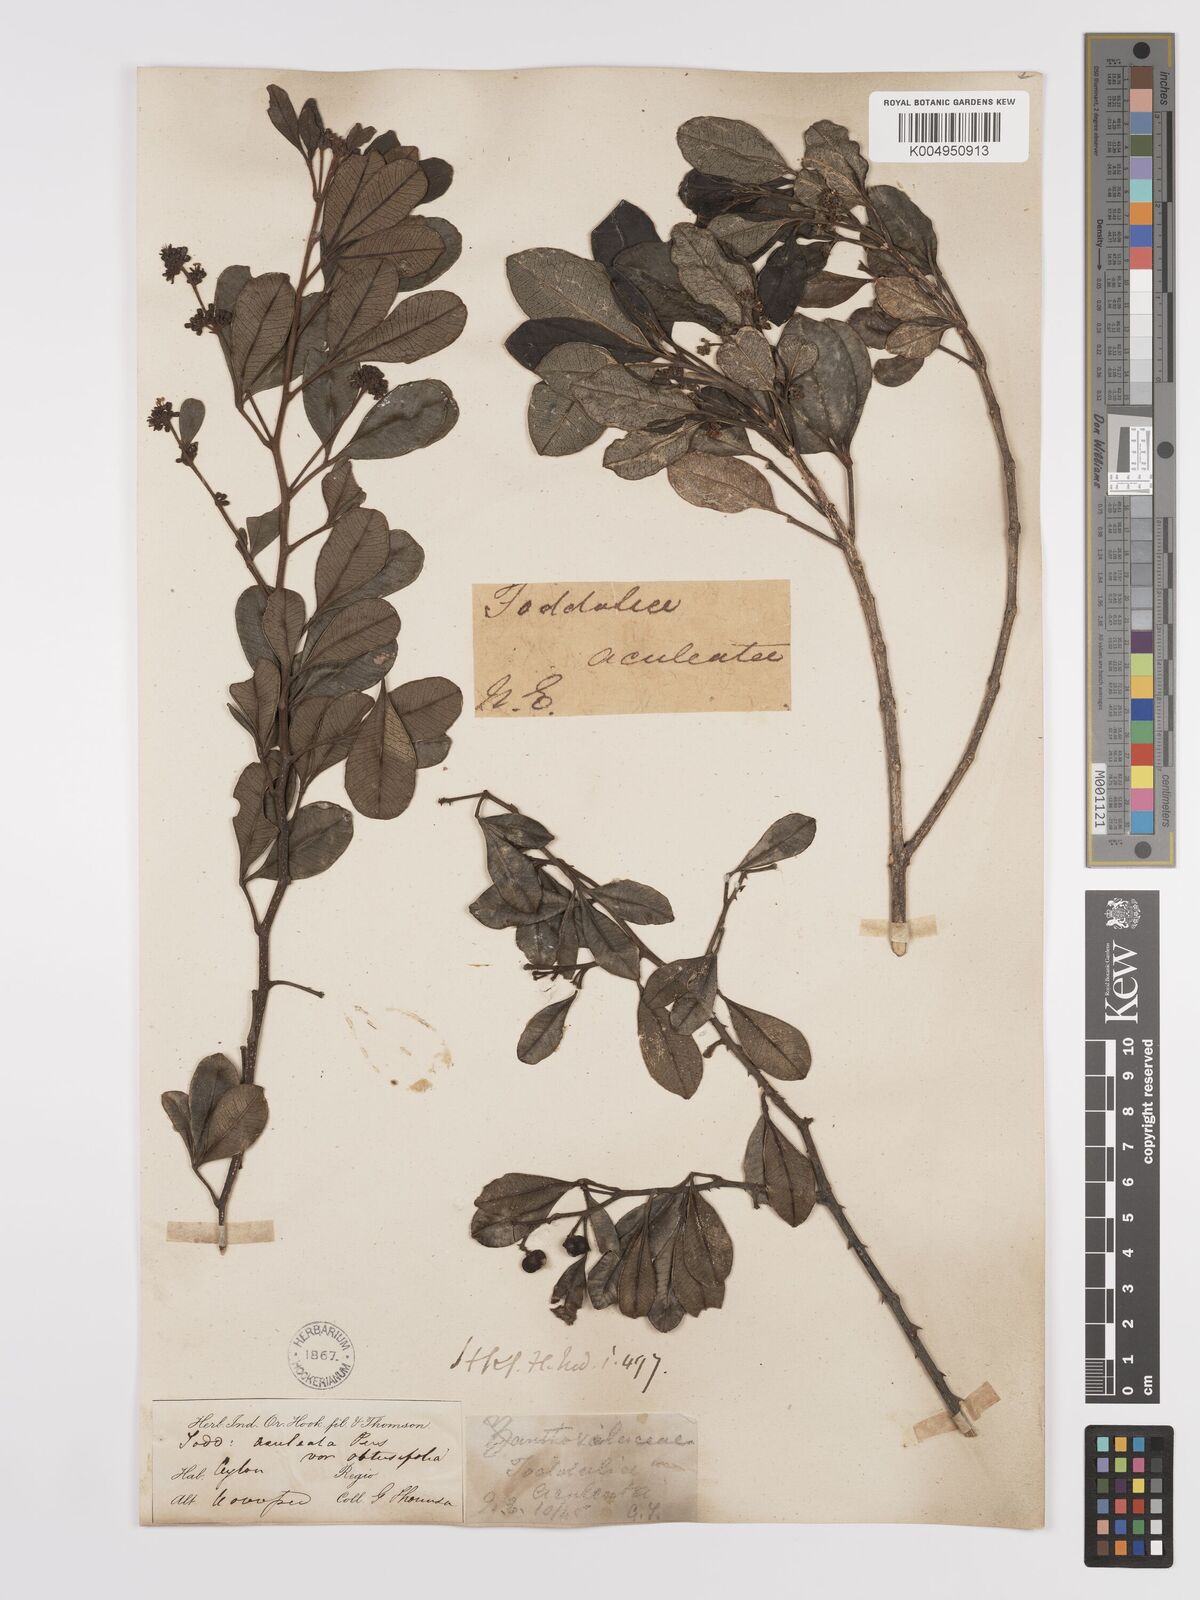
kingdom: Plantae
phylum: Tracheophyta
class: Magnoliopsida
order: Sapindales
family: Rutaceae
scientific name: Rutaceae
